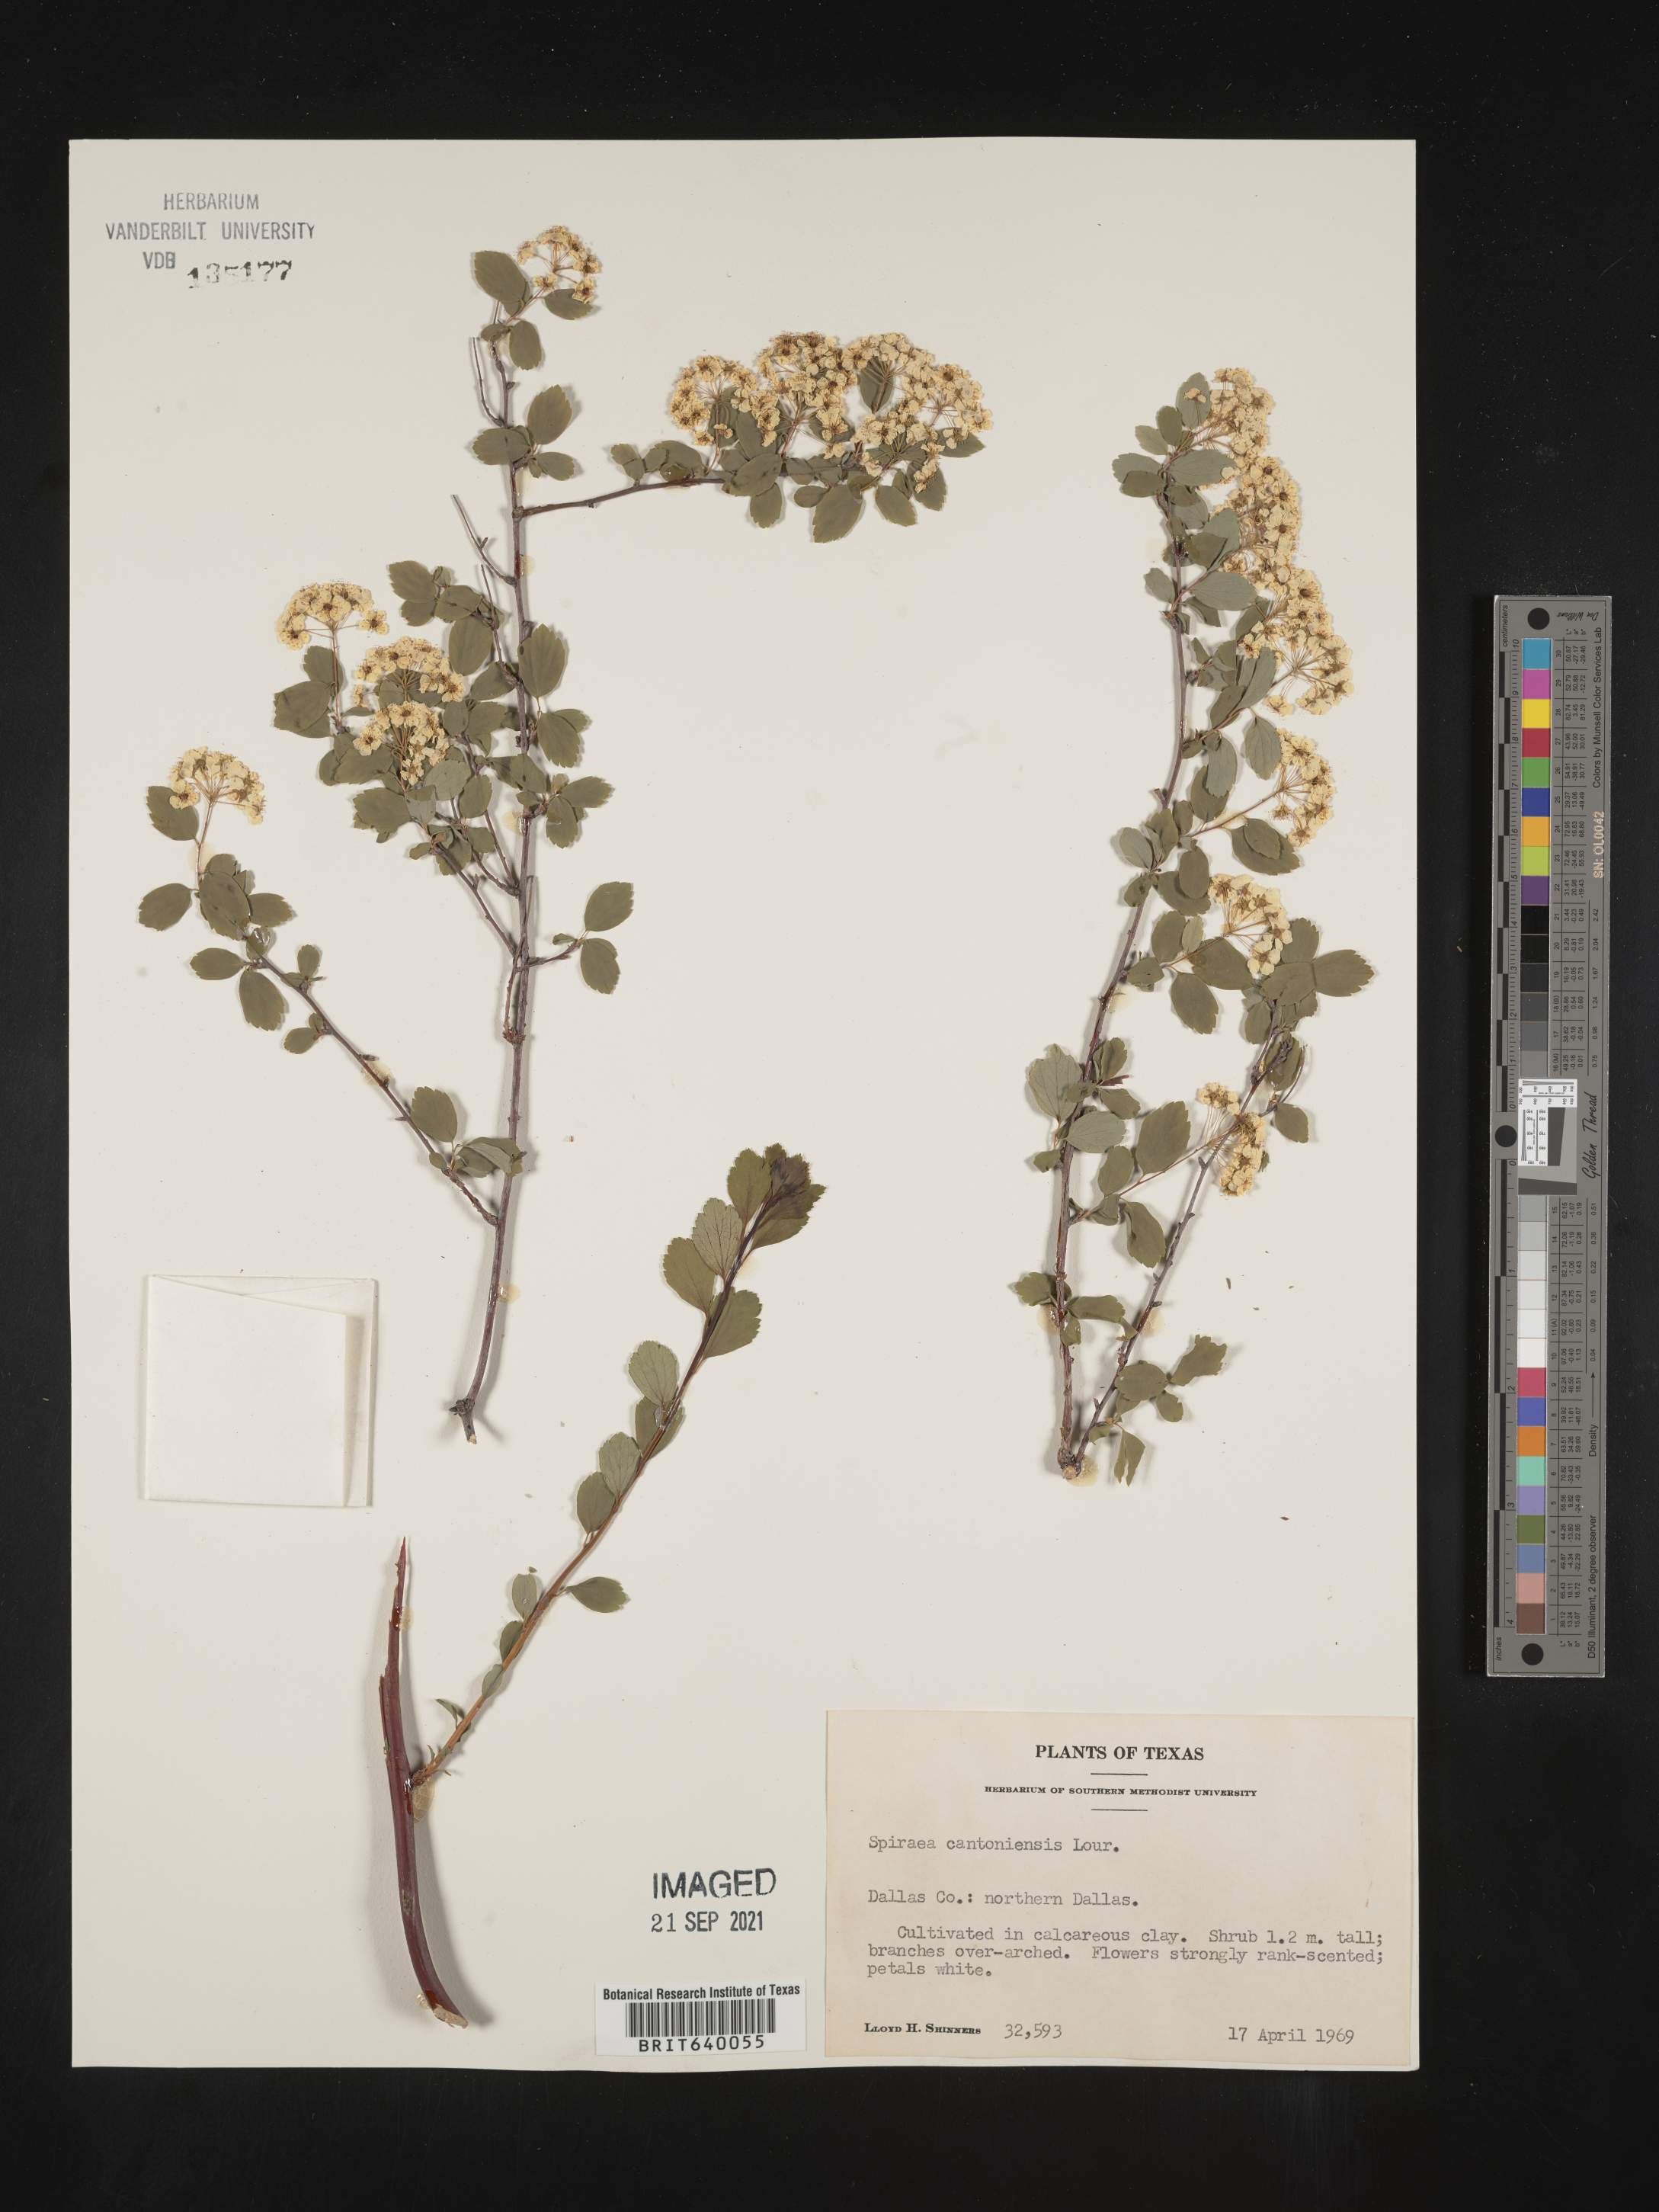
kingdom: Plantae
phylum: Tracheophyta
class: Magnoliopsida
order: Rosales
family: Rosaceae
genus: Spiraea
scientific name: Spiraea
